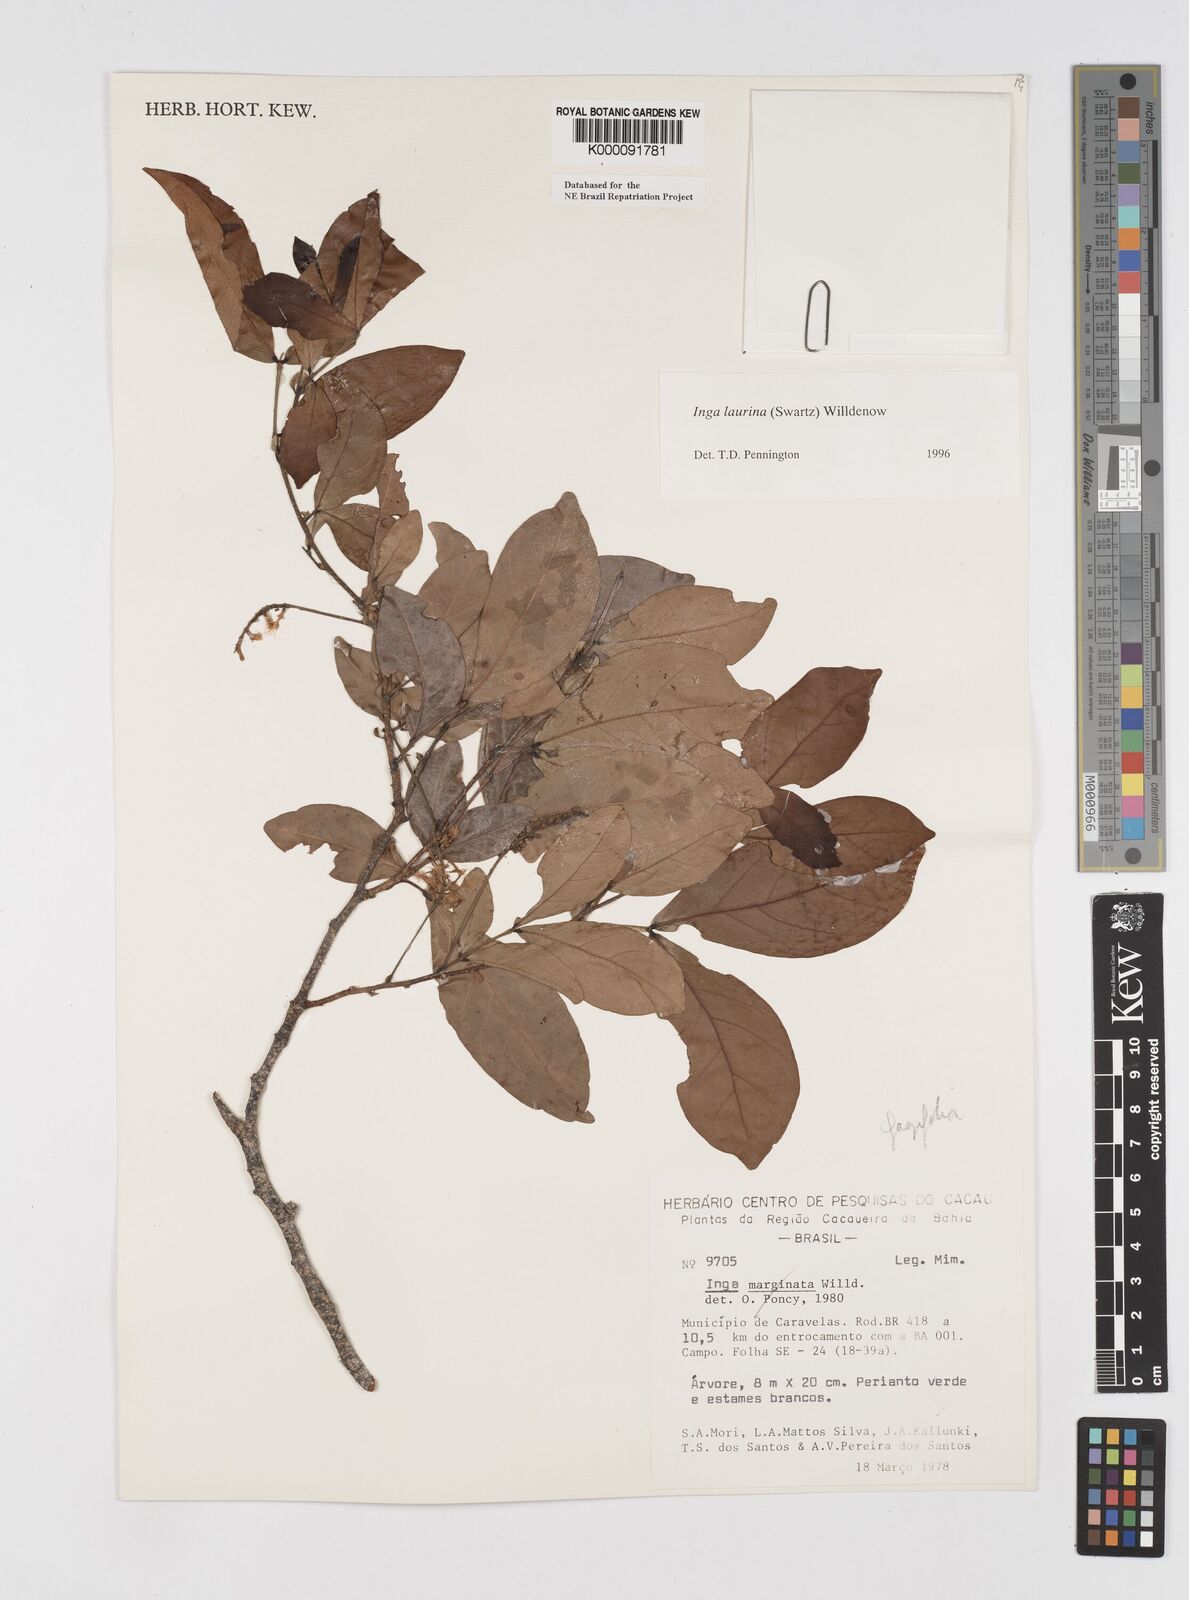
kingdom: Plantae
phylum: Tracheophyta
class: Magnoliopsida
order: Fabales
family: Fabaceae
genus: Inga
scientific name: Inga laurina
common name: Red wood
